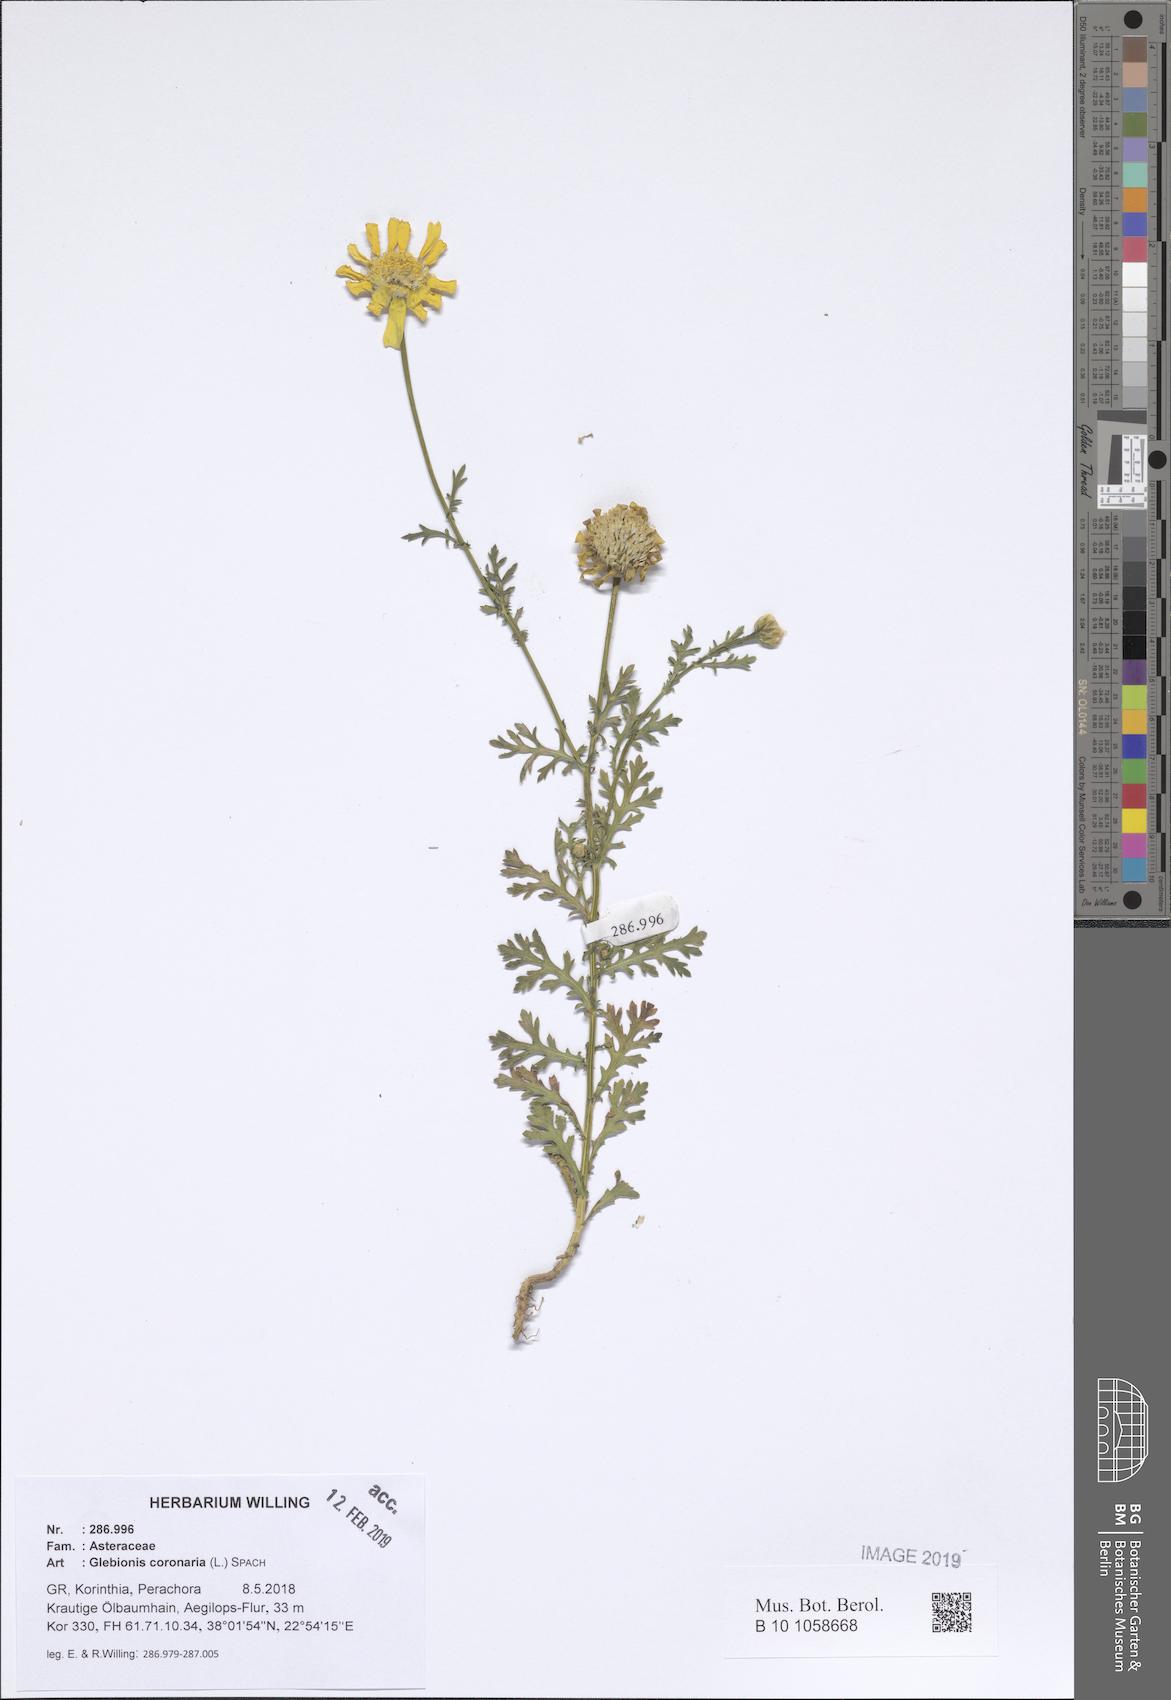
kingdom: Plantae
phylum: Tracheophyta
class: Magnoliopsida
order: Asterales
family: Asteraceae
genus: Glebionis
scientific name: Glebionis coronaria
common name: Crowndaisy
